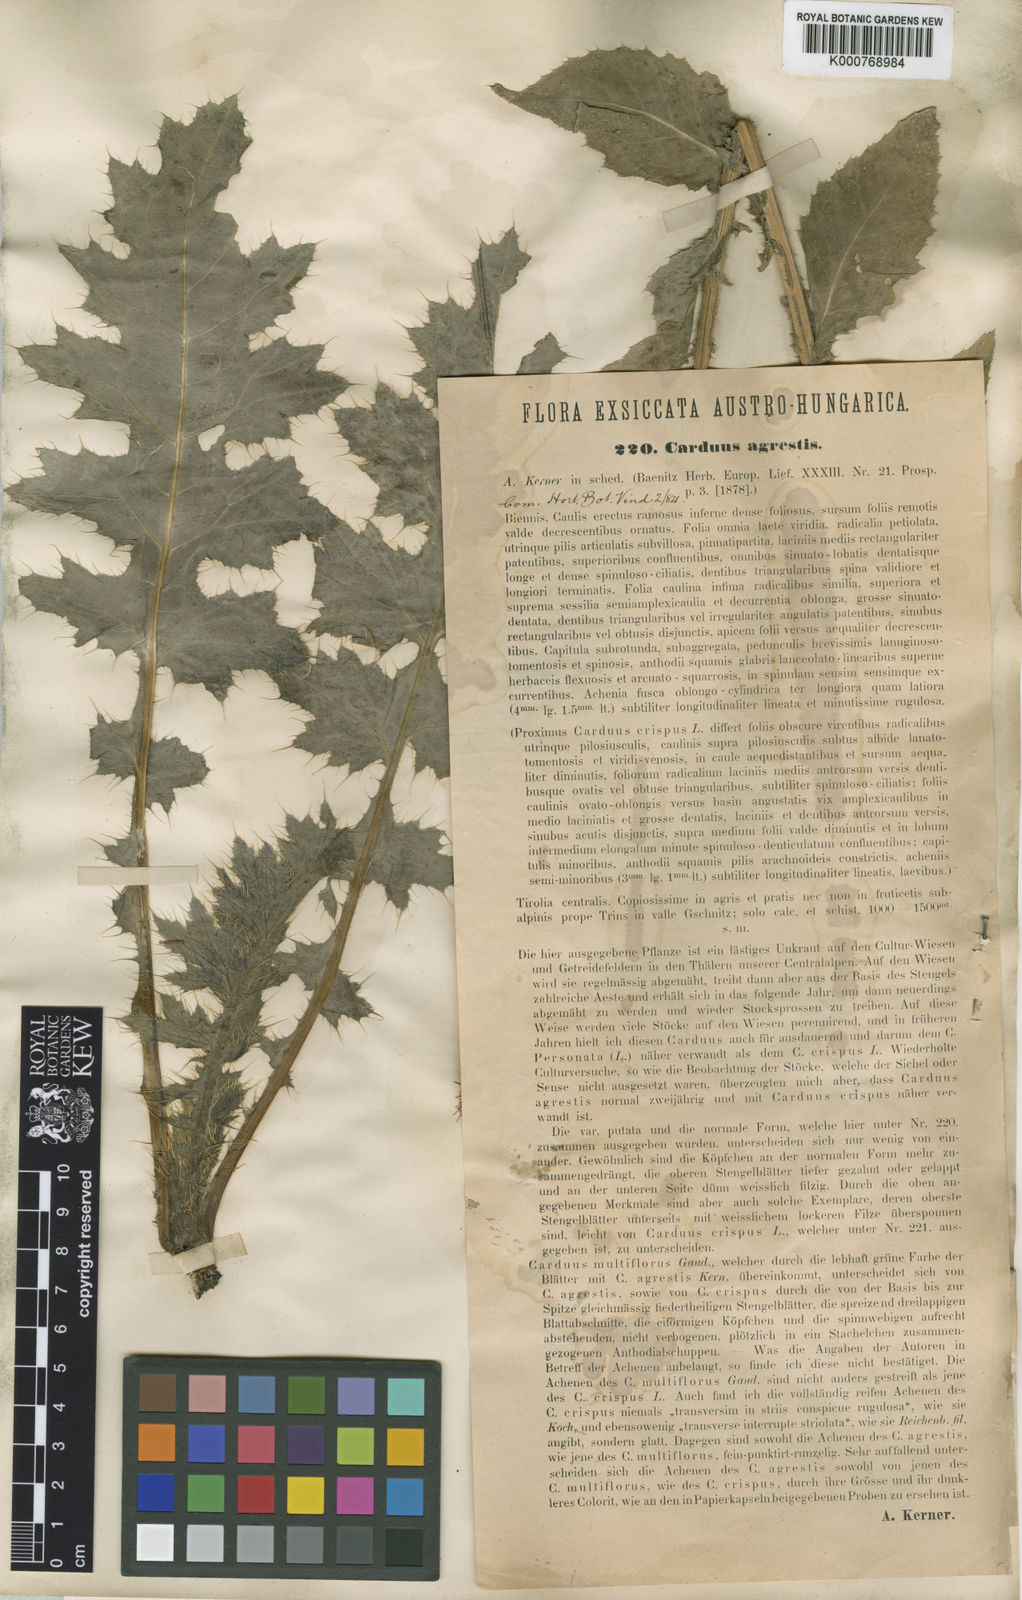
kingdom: Plantae
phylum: Tracheophyta
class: Magnoliopsida
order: Asterales
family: Asteraceae
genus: Carduus
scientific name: Carduus crispus
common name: Welted thistle
